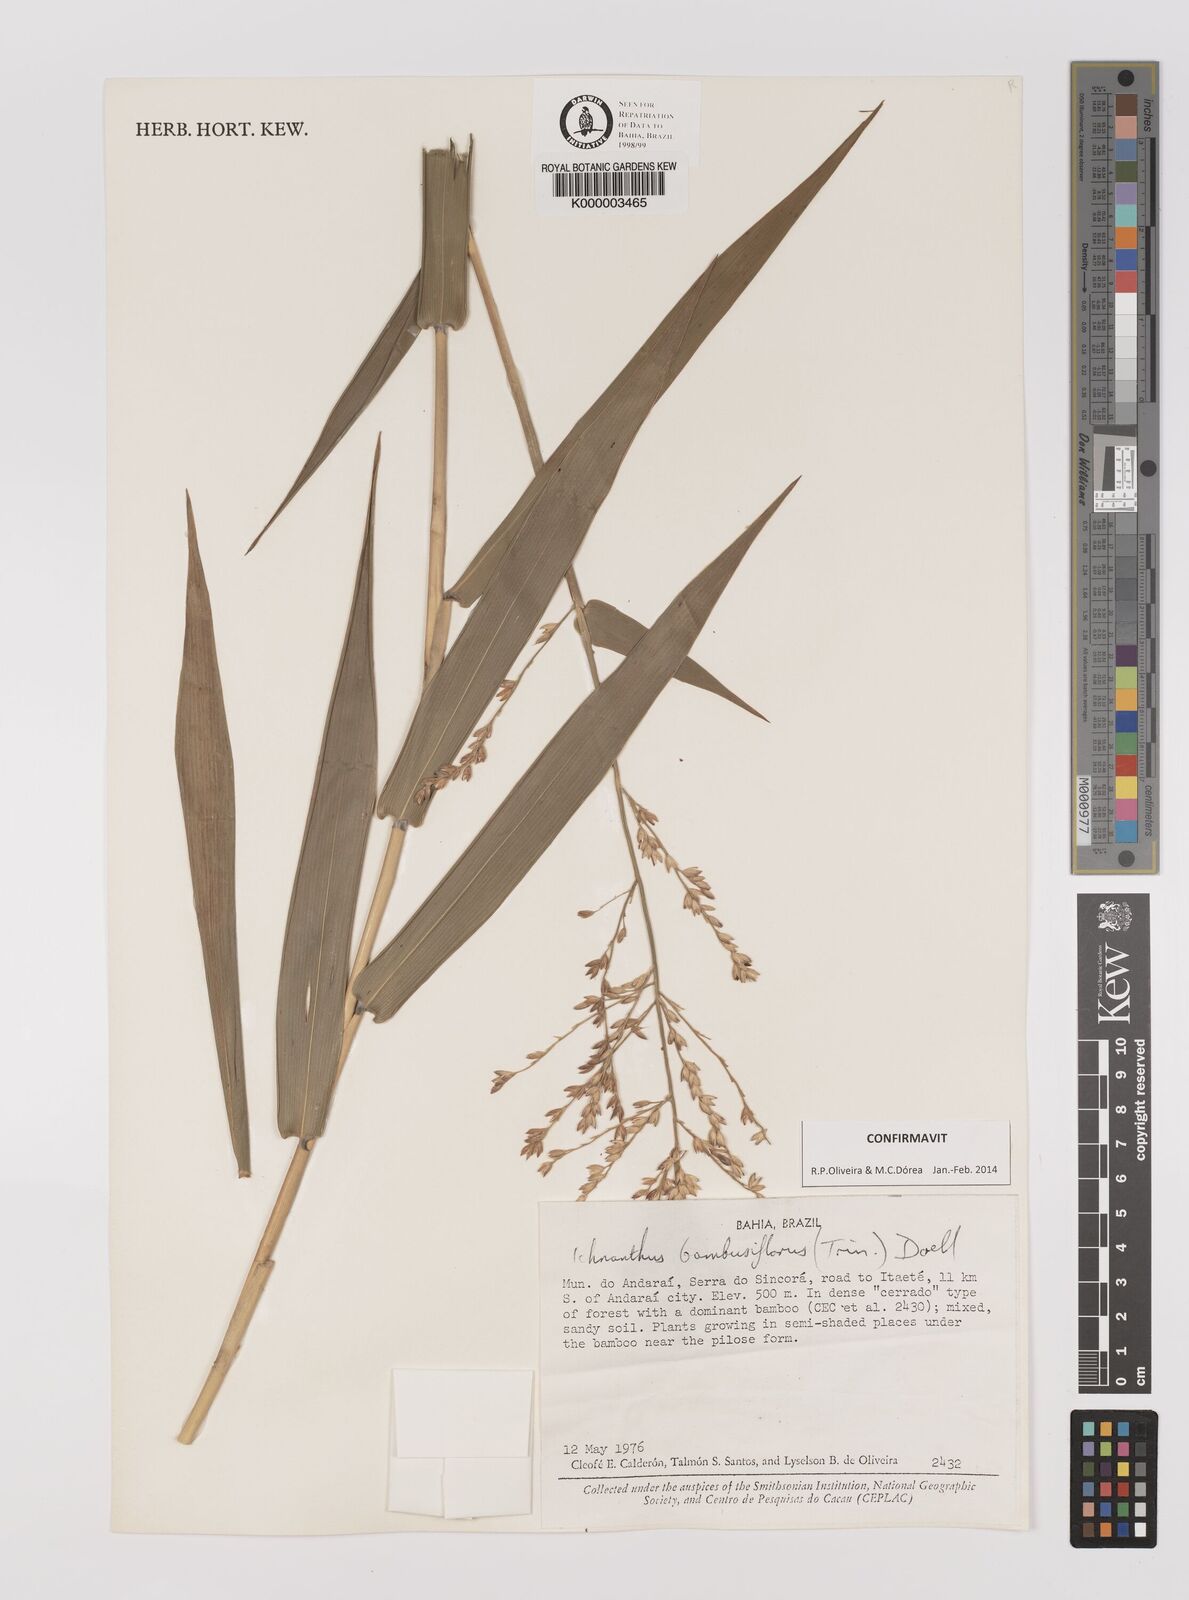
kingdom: Plantae
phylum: Tracheophyta
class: Liliopsida
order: Poales
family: Poaceae
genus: Ichnanthus
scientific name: Ichnanthus
